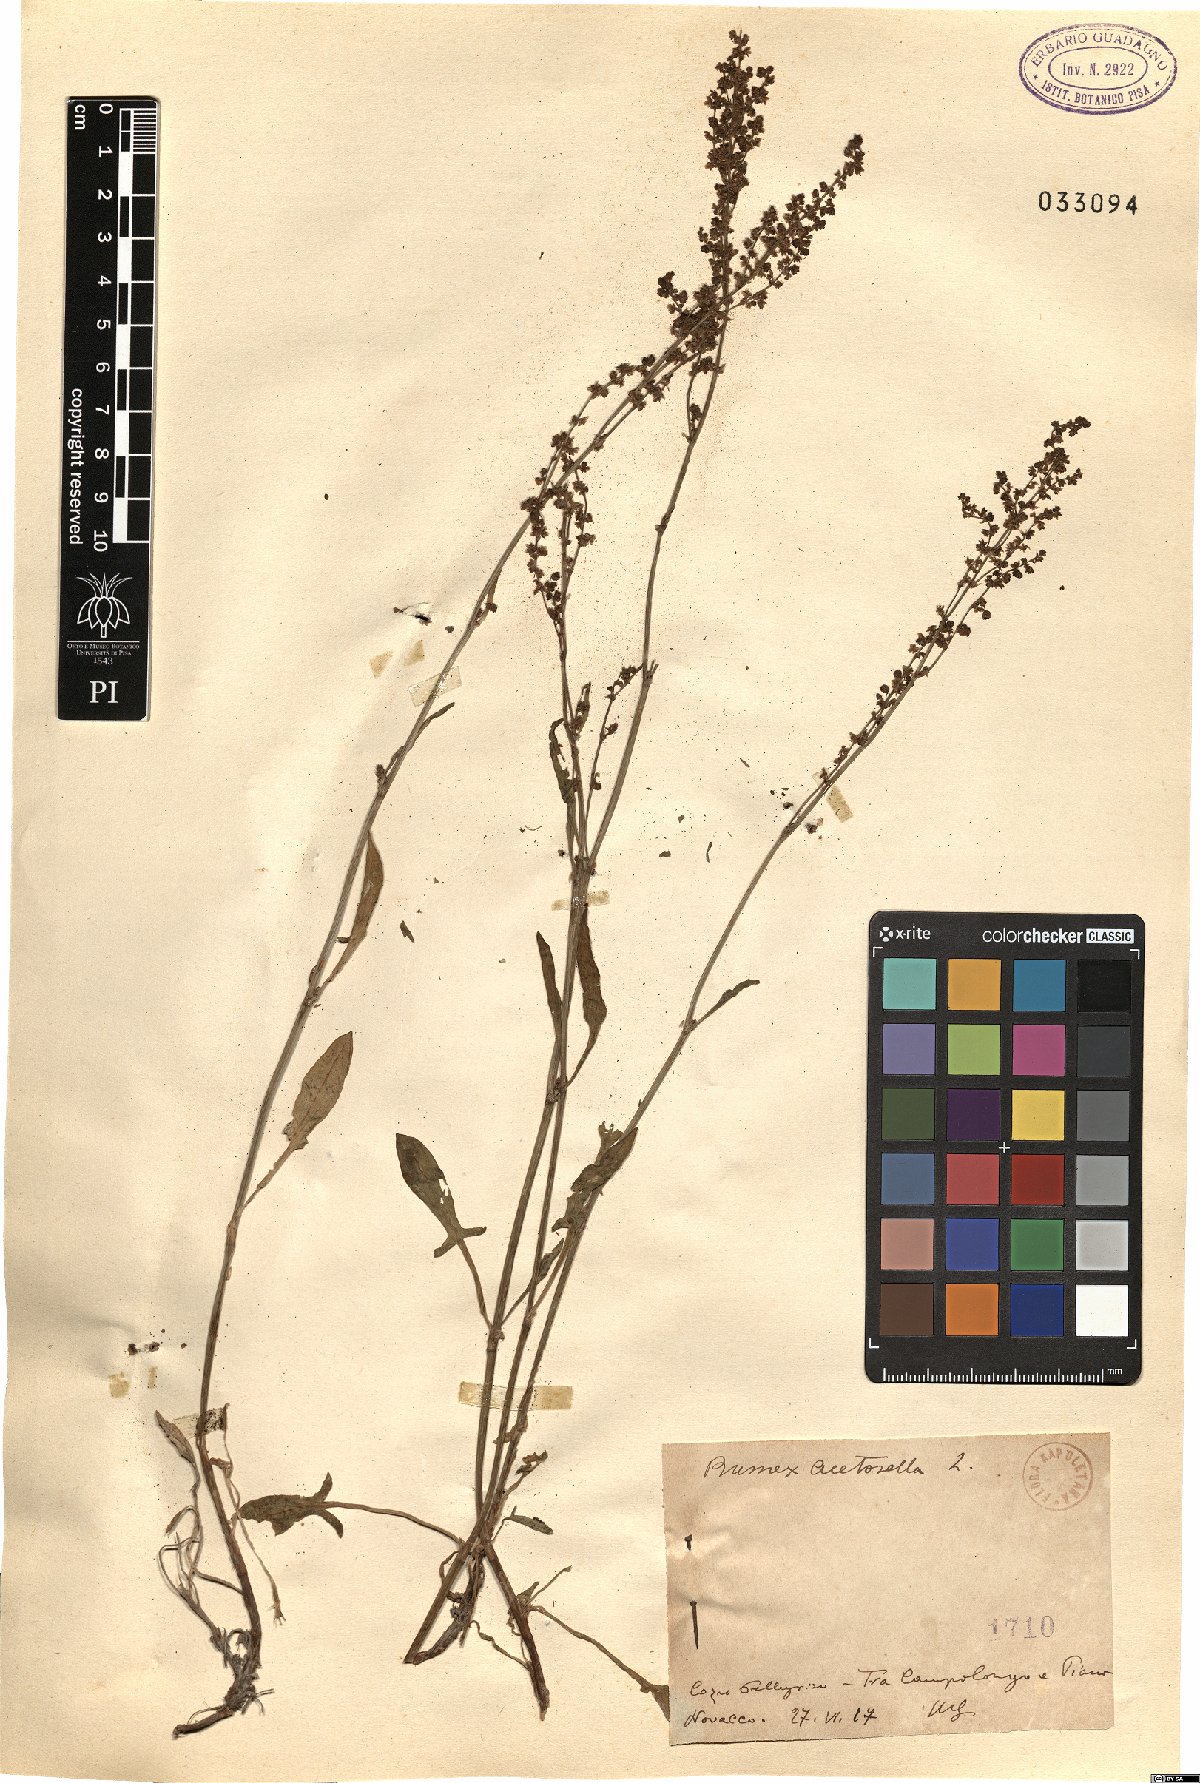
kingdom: Plantae
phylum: Tracheophyta
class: Magnoliopsida
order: Caryophyllales
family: Polygonaceae
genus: Rumex
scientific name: Rumex acetosella
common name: Common sheep sorrel
